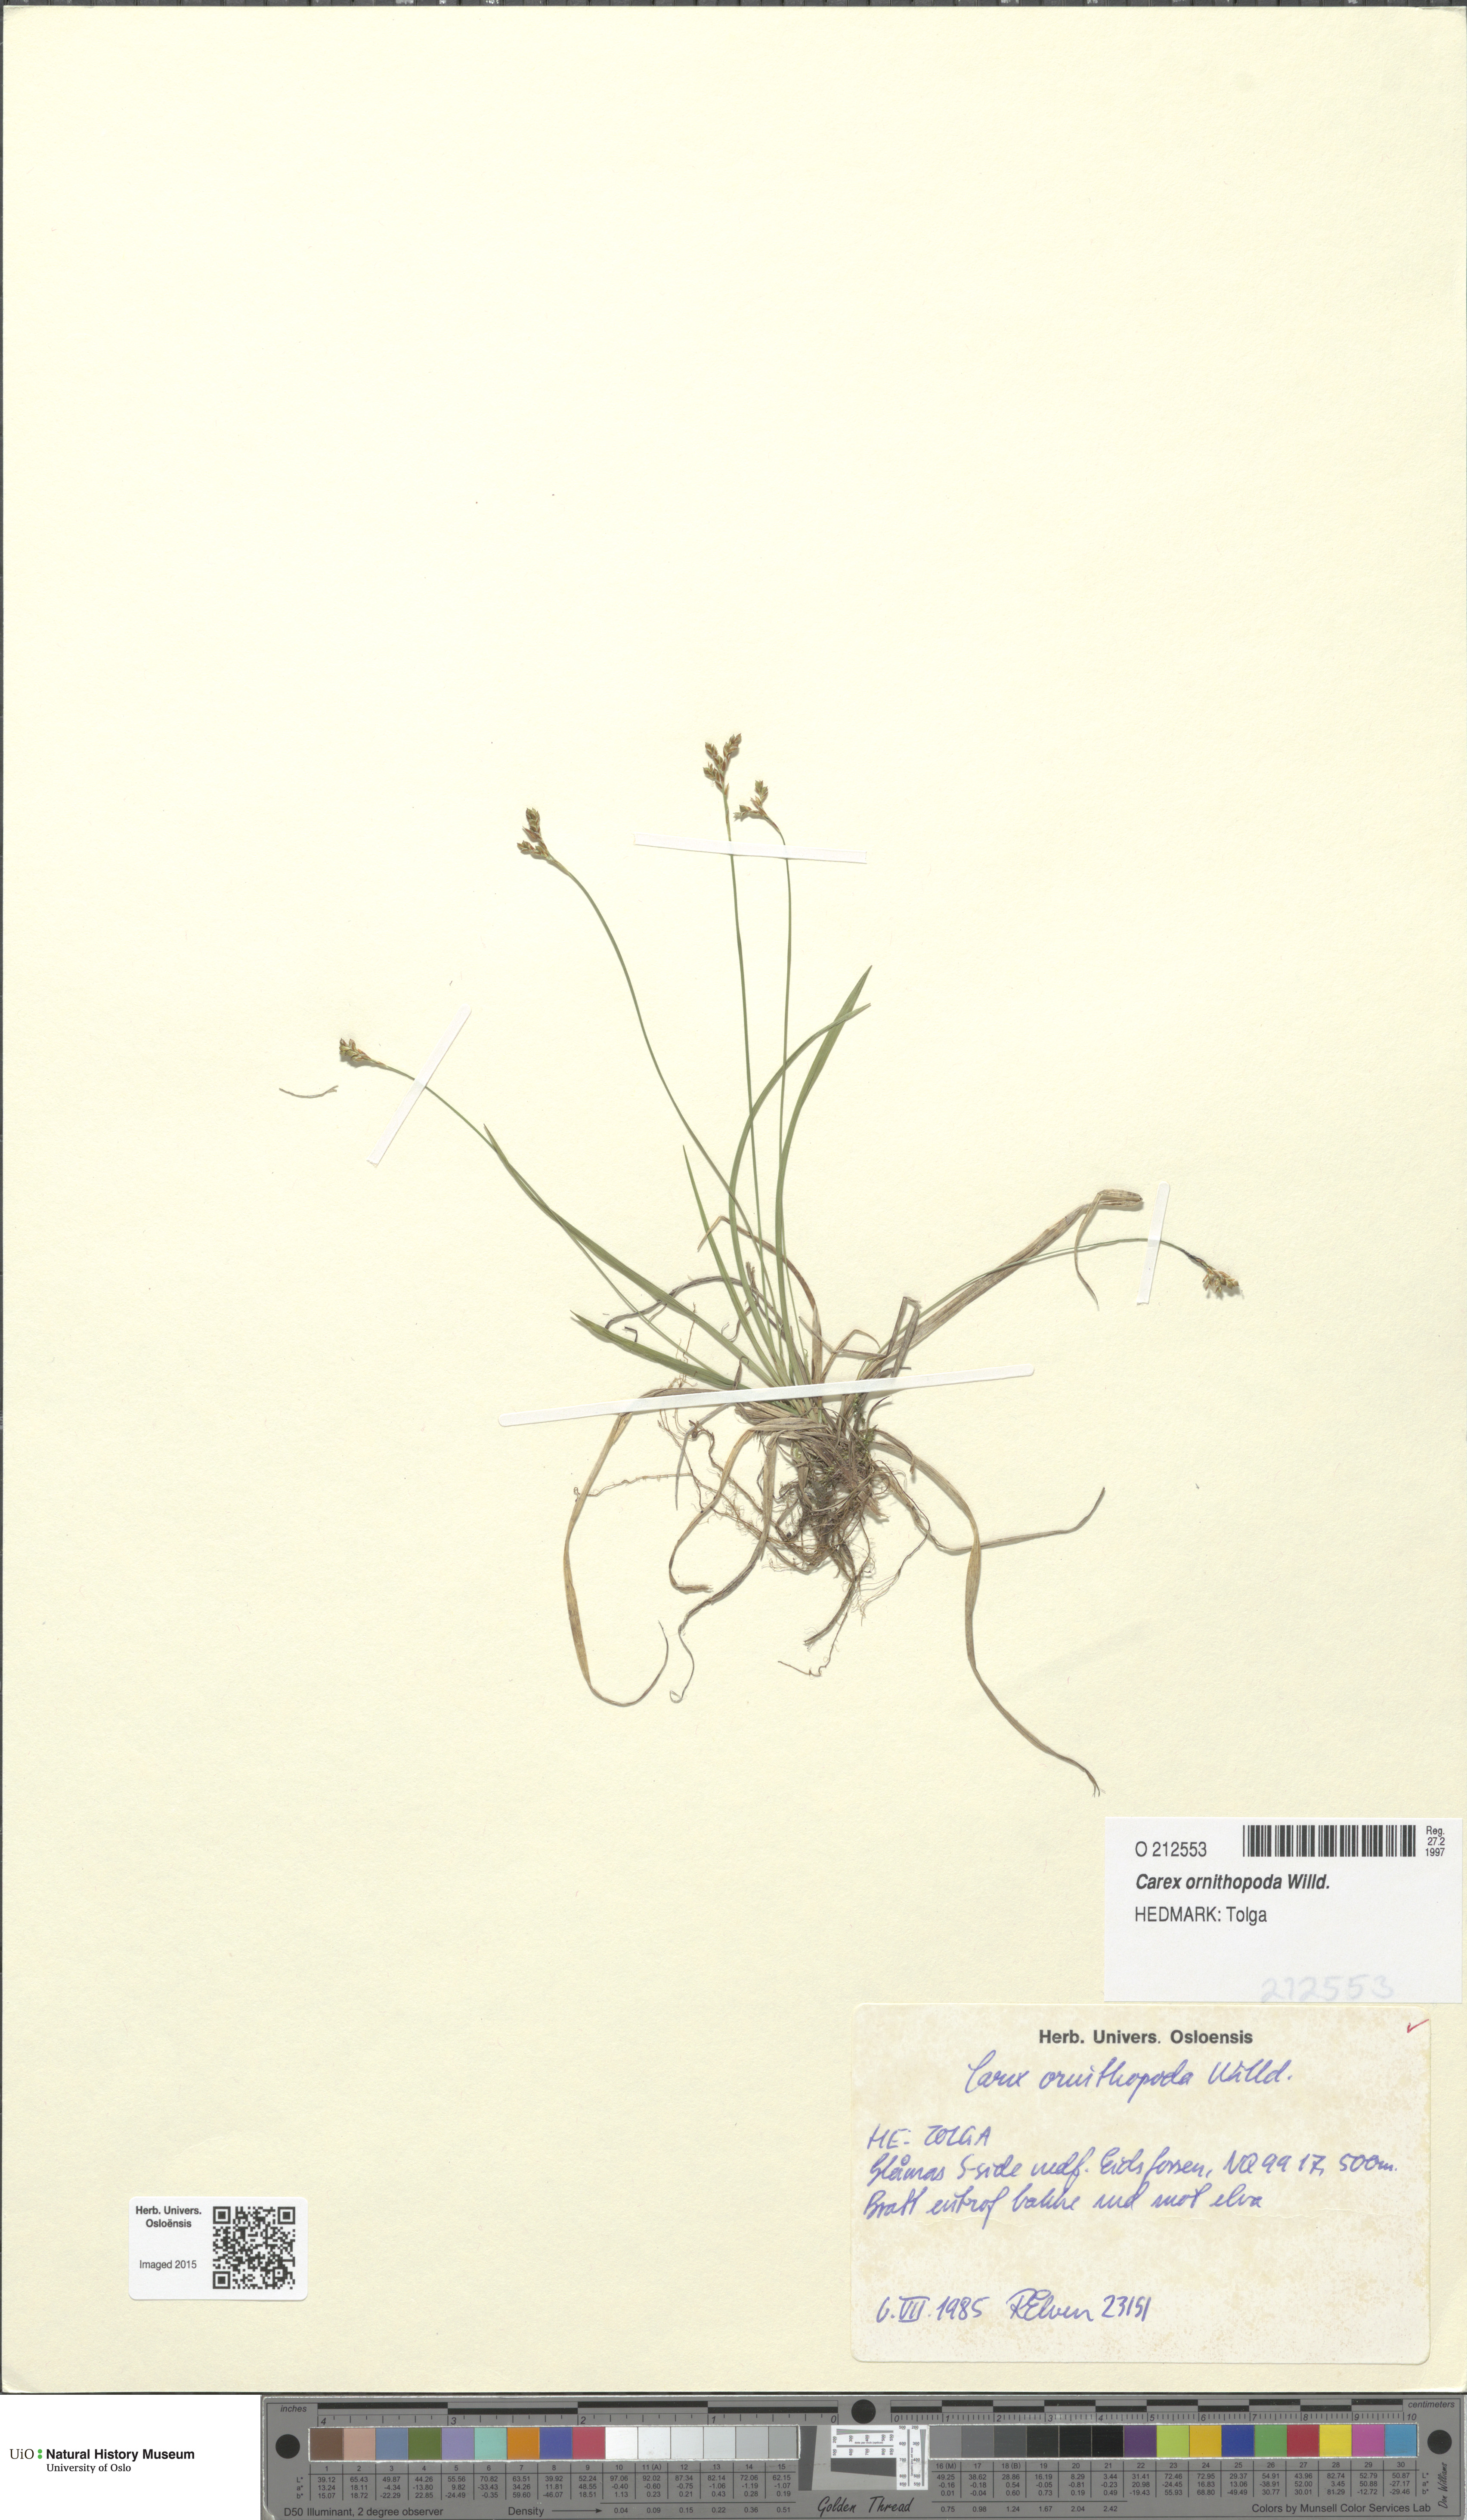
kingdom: Plantae
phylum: Tracheophyta
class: Liliopsida
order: Poales
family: Cyperaceae
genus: Carex
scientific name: Carex ornithopoda
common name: Bird's-foot sedge
